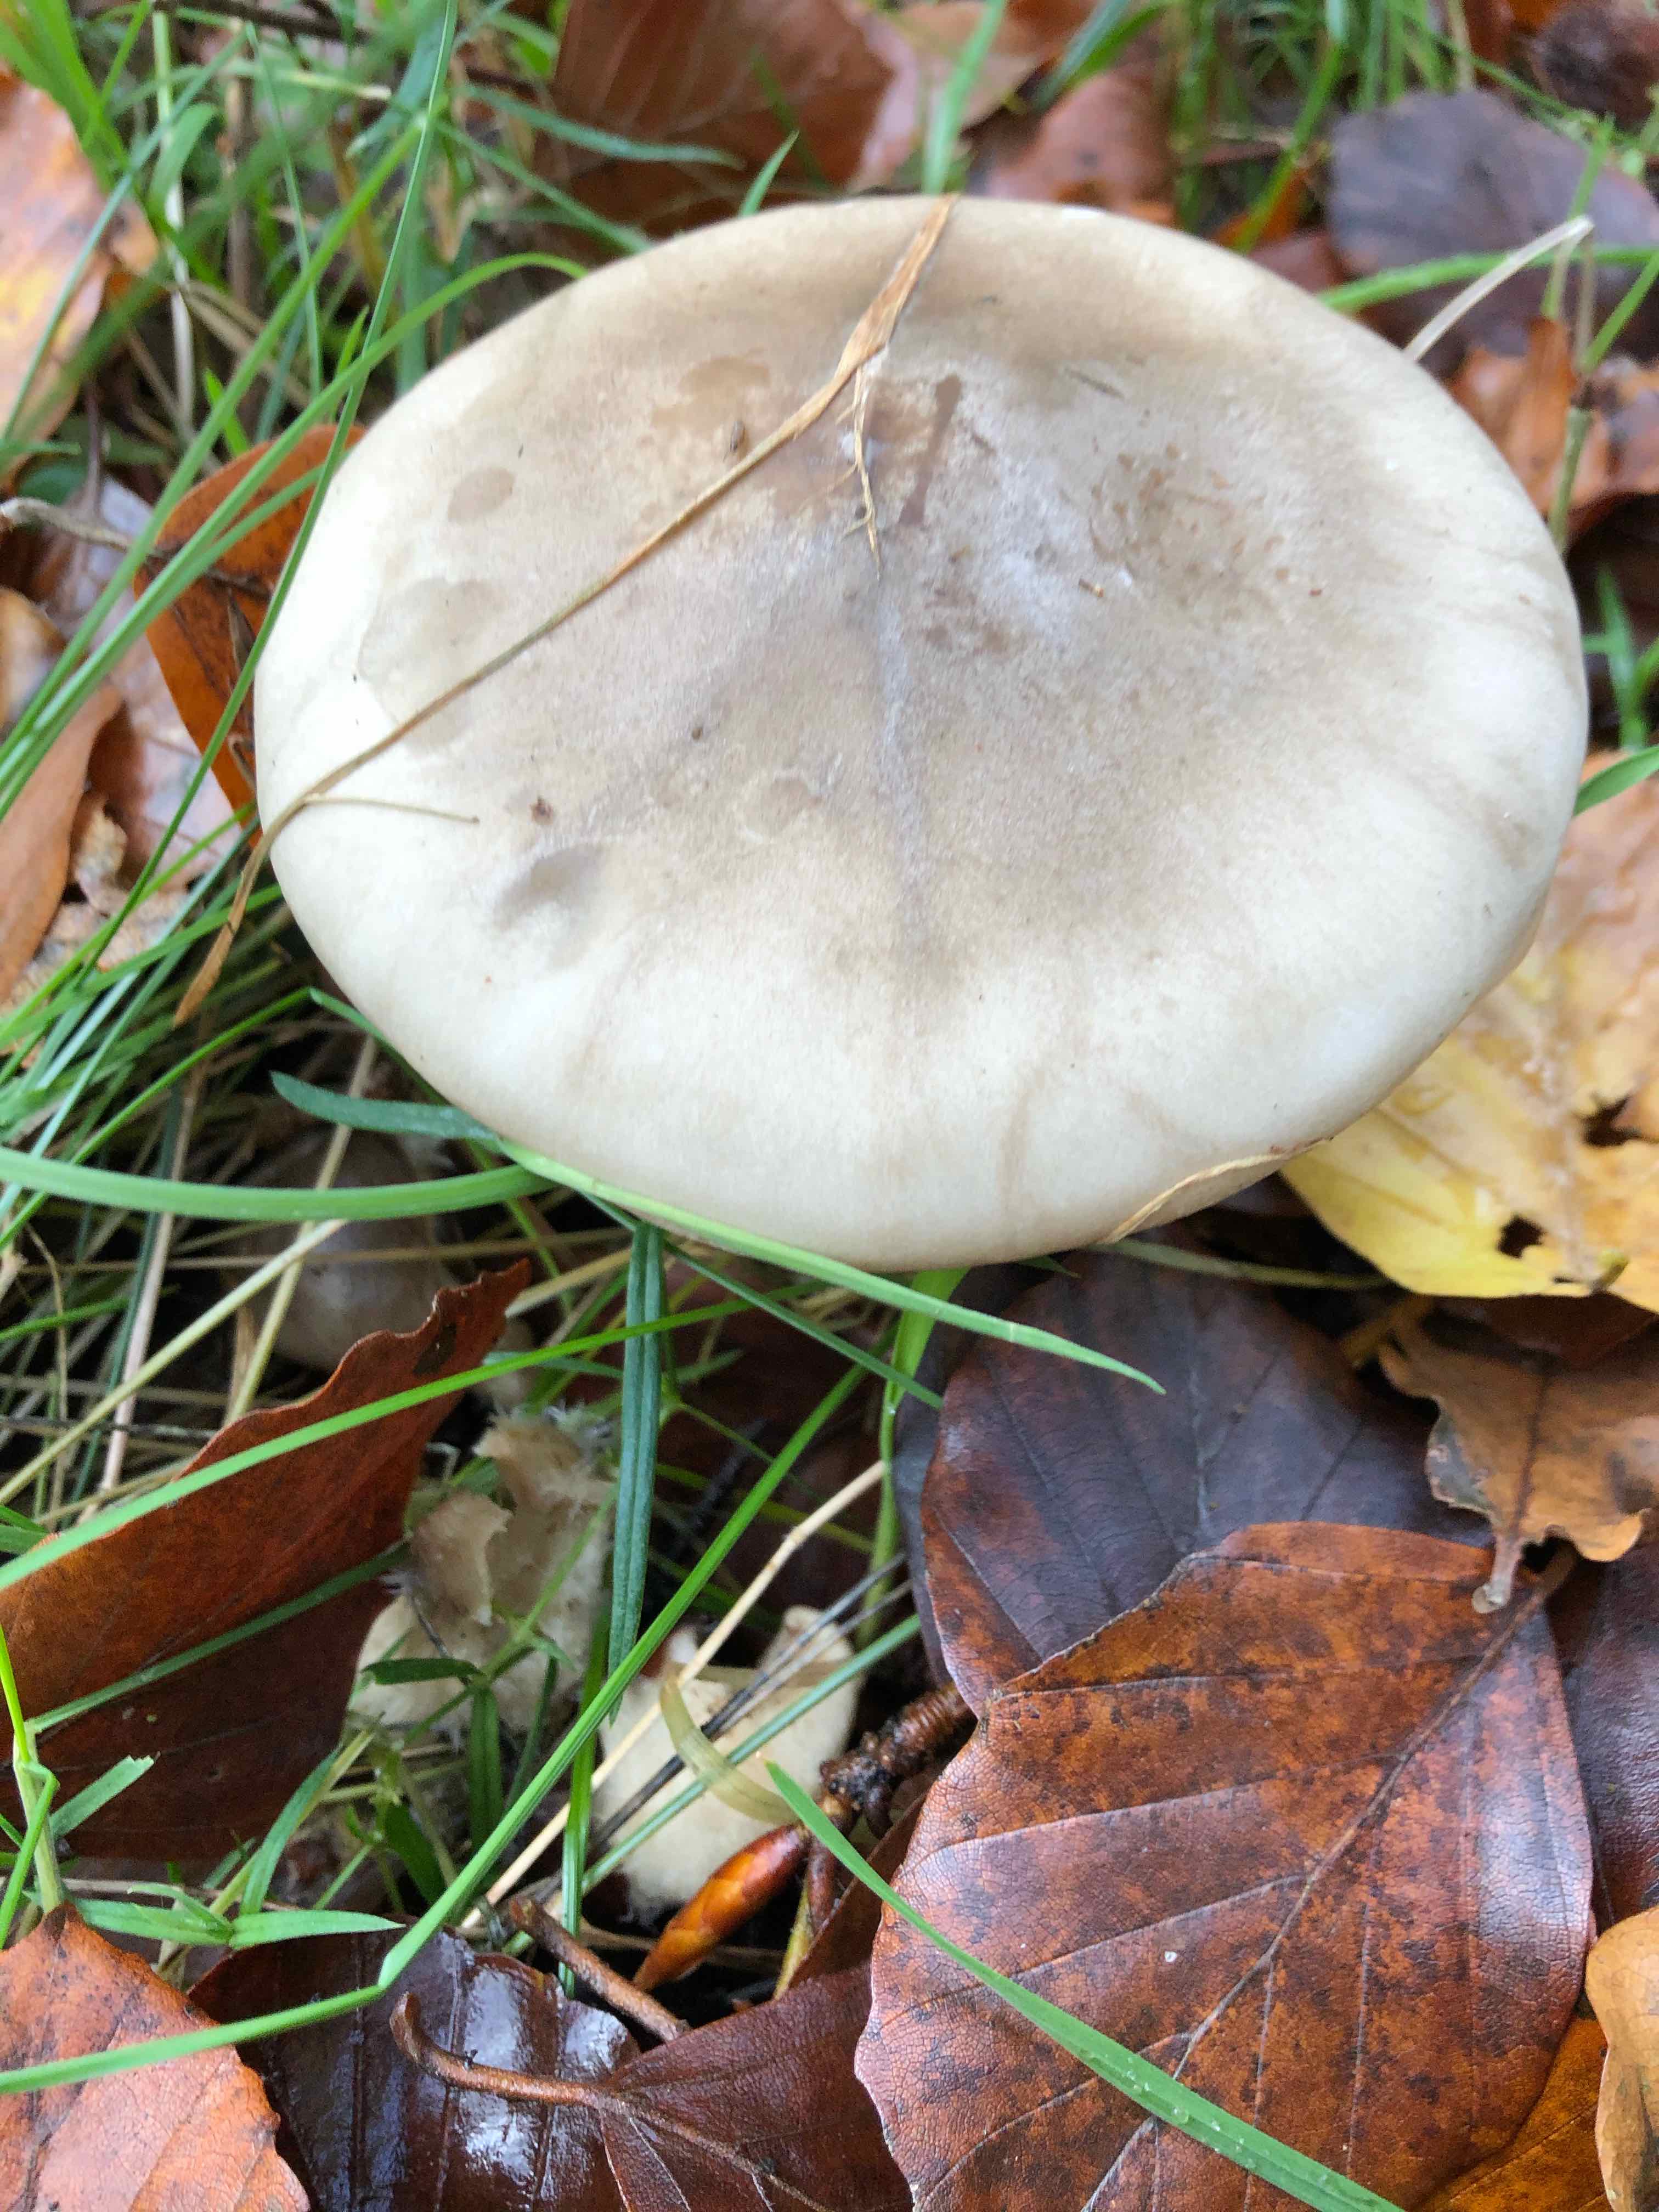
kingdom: Fungi
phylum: Basidiomycota
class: Agaricomycetes
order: Agaricales
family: Tricholomataceae
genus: Clitocybe
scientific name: Clitocybe nebularis
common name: tåge-tragthat
